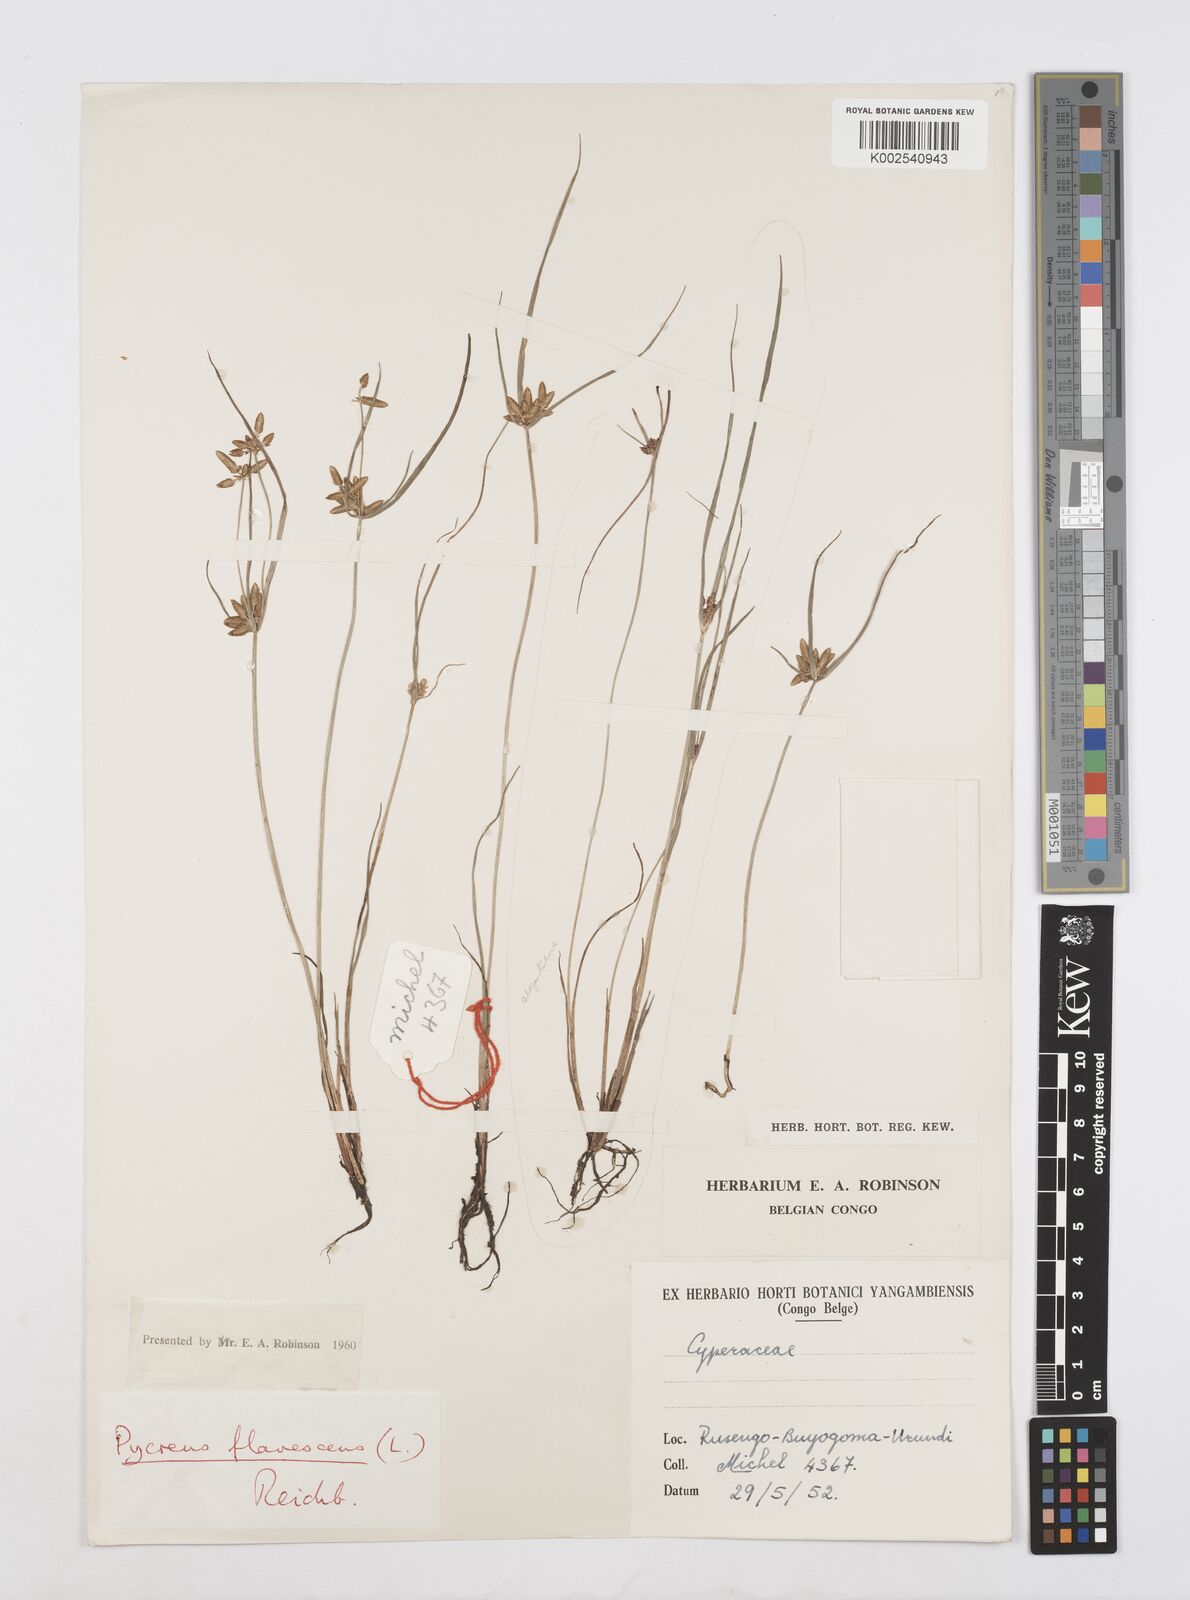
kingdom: Plantae
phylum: Tracheophyta
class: Liliopsida
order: Poales
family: Cyperaceae
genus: Cyperus
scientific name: Cyperus flavescens
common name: Yellow galingale
